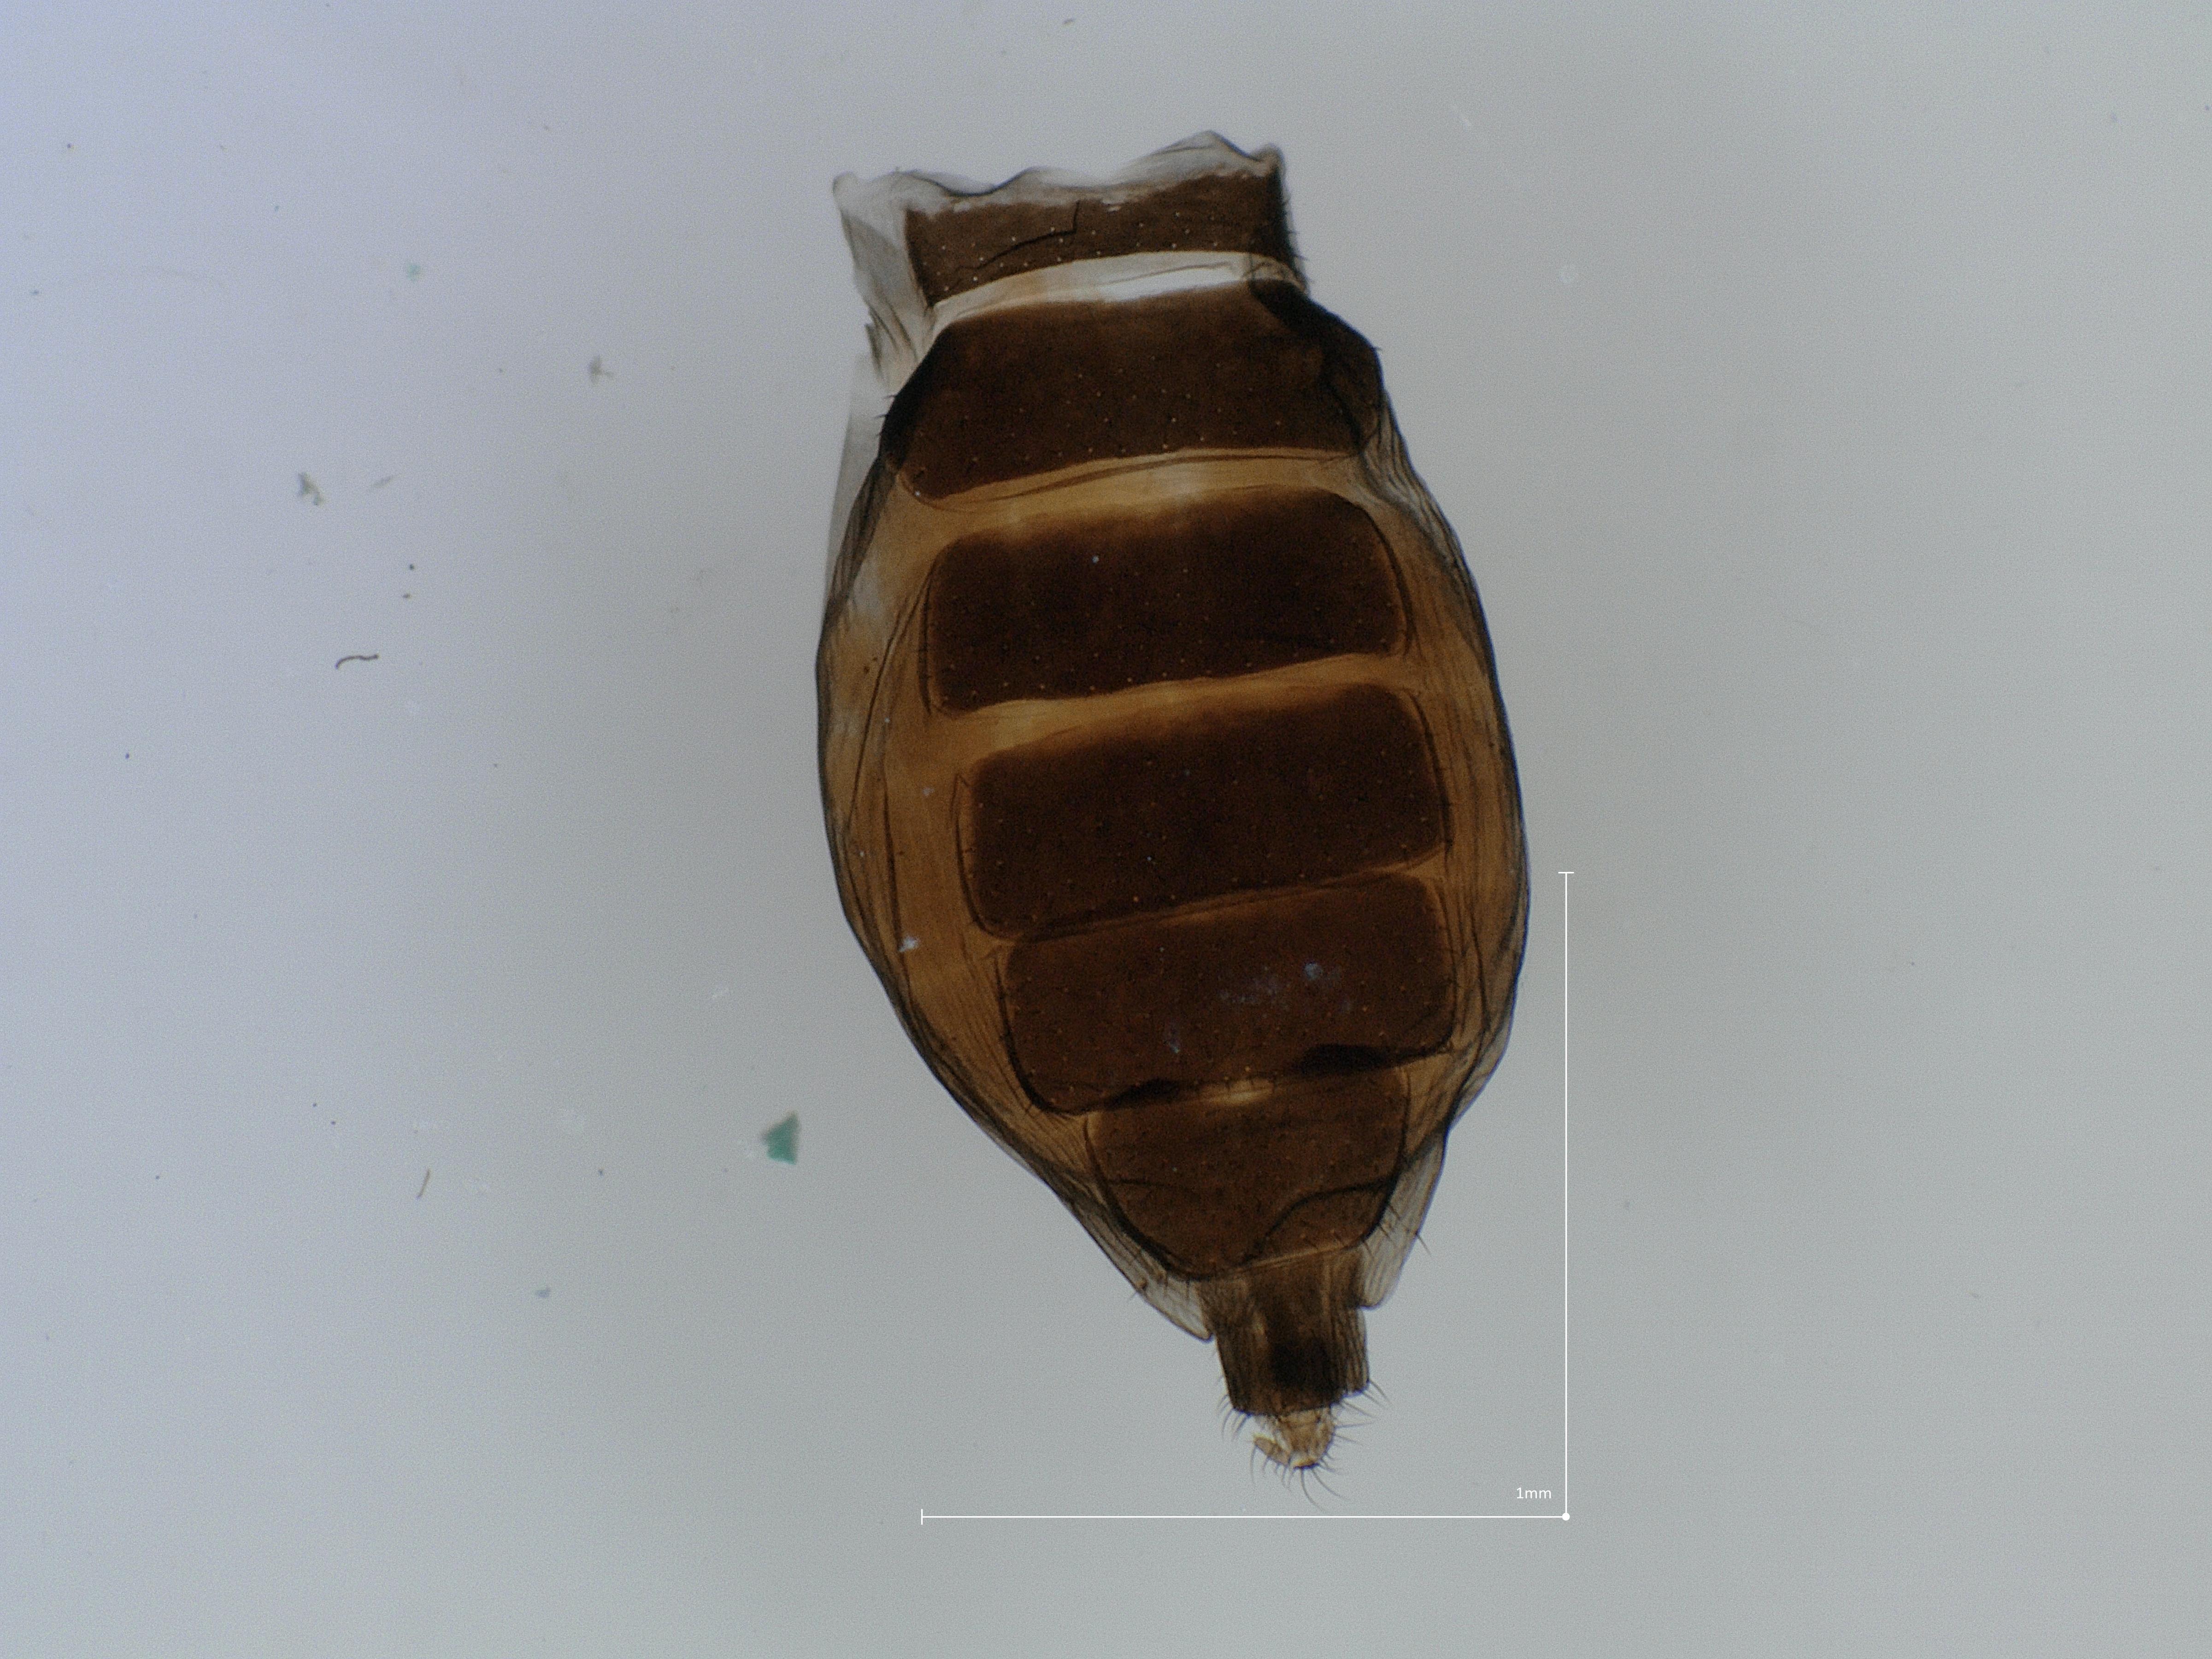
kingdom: Animalia
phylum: Arthropoda
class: Insecta
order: Diptera
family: Phoridae
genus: Megaselia
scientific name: Megaselia tenebricola
